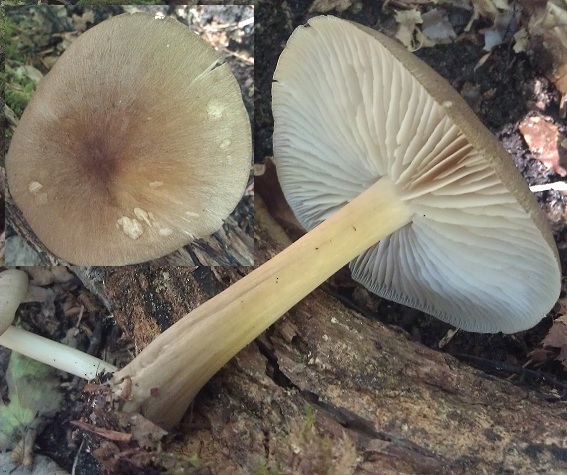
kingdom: Fungi
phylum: Basidiomycota
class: Agaricomycetes
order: Agaricales
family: Tricholomataceae
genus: Megacollybia
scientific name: Megacollybia platyphylla
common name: bredbladet væbnerhat
